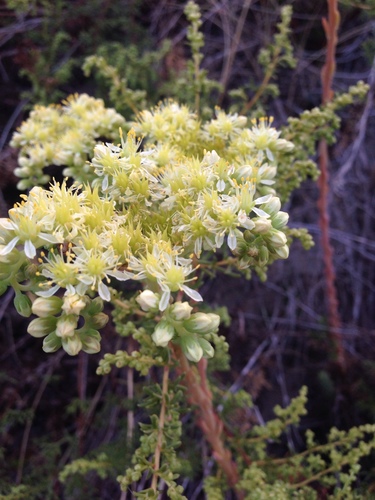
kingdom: Plantae
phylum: Tracheophyta
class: Magnoliopsida
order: Saxifragales
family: Crassulaceae
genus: Petrosedum
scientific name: Petrosedum sediforme
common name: Pale stonecrop
